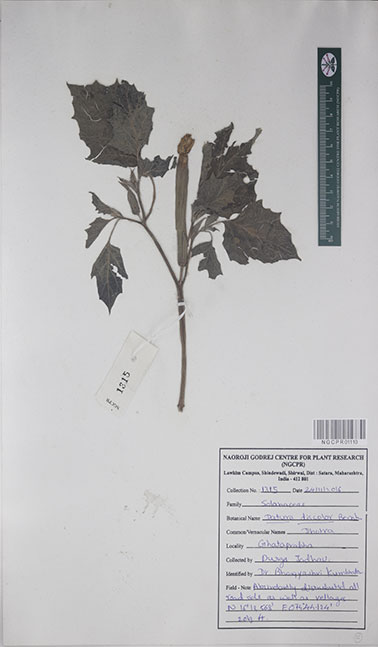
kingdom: Plantae
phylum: Tracheophyta
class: Magnoliopsida
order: Solanales
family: Solanaceae
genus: Datura
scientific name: Datura discolor
